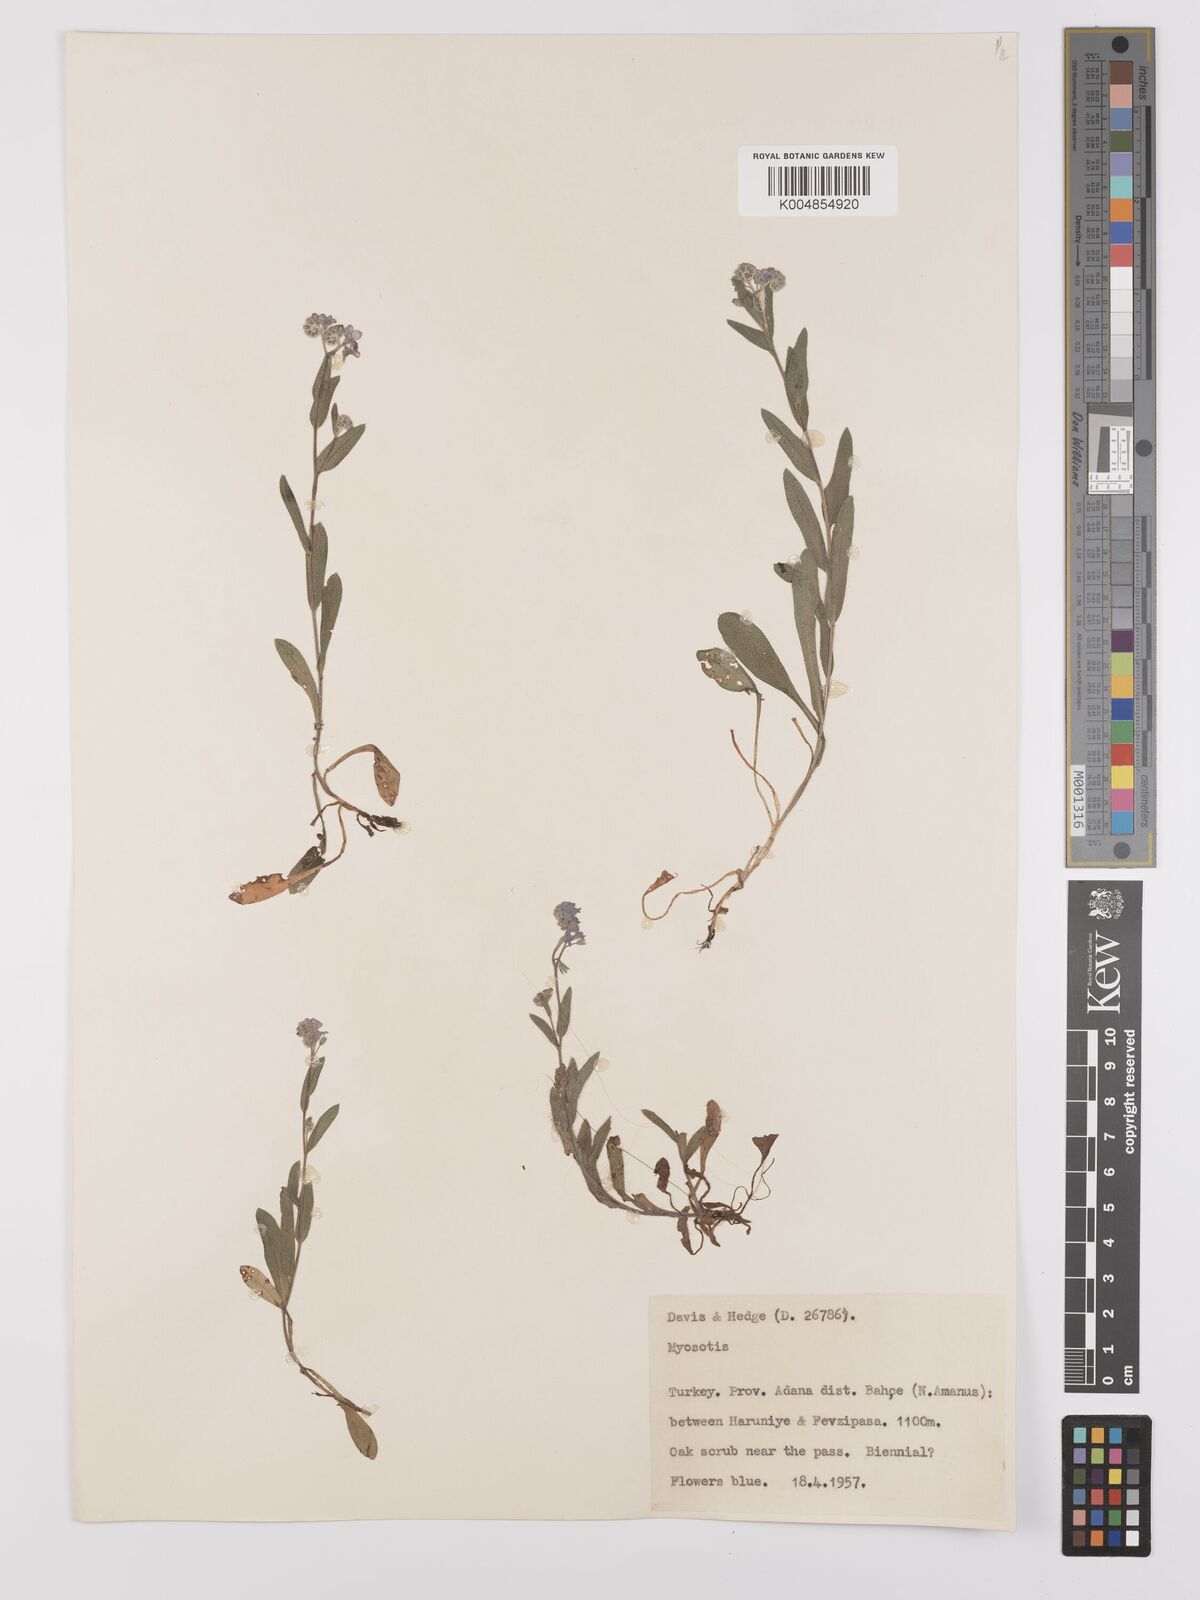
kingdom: Plantae
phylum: Tracheophyta
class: Magnoliopsida
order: Boraginales
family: Boraginaceae
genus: Myosotis
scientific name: Myosotis
